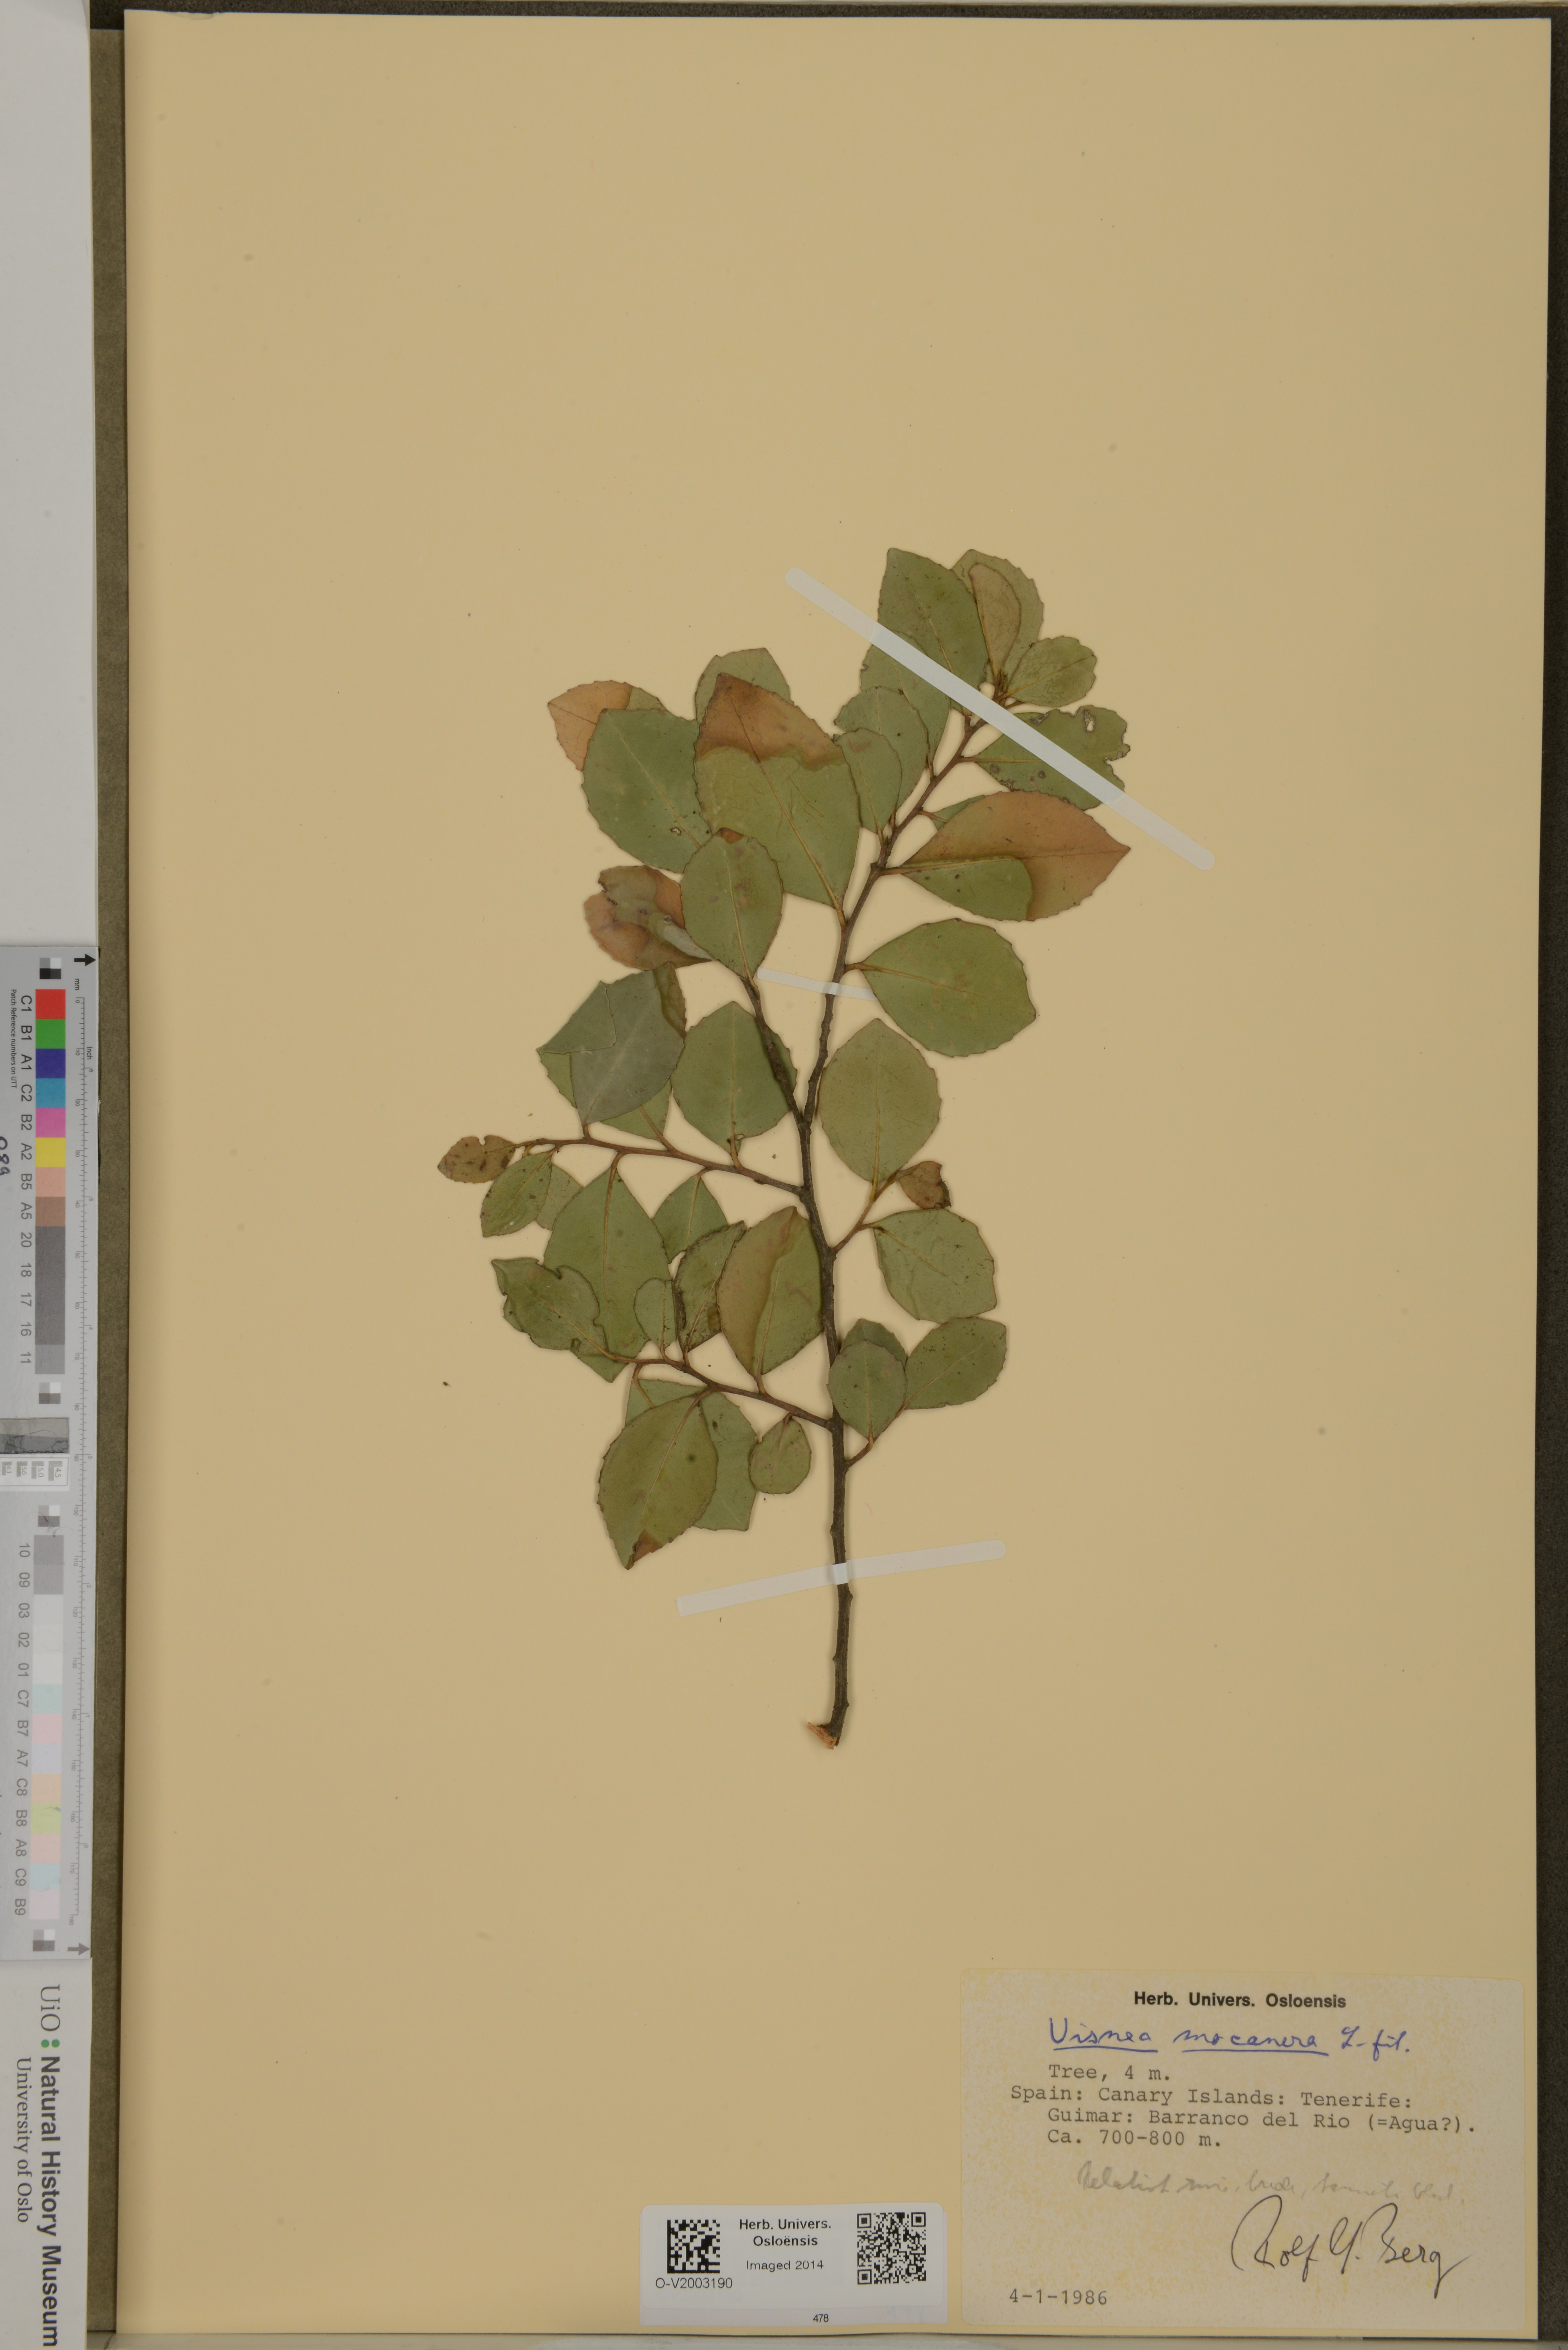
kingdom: Plantae
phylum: Tracheophyta
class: Magnoliopsida
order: Ericales
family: Pentaphylacaceae
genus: Visnea
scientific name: Visnea mocanera
